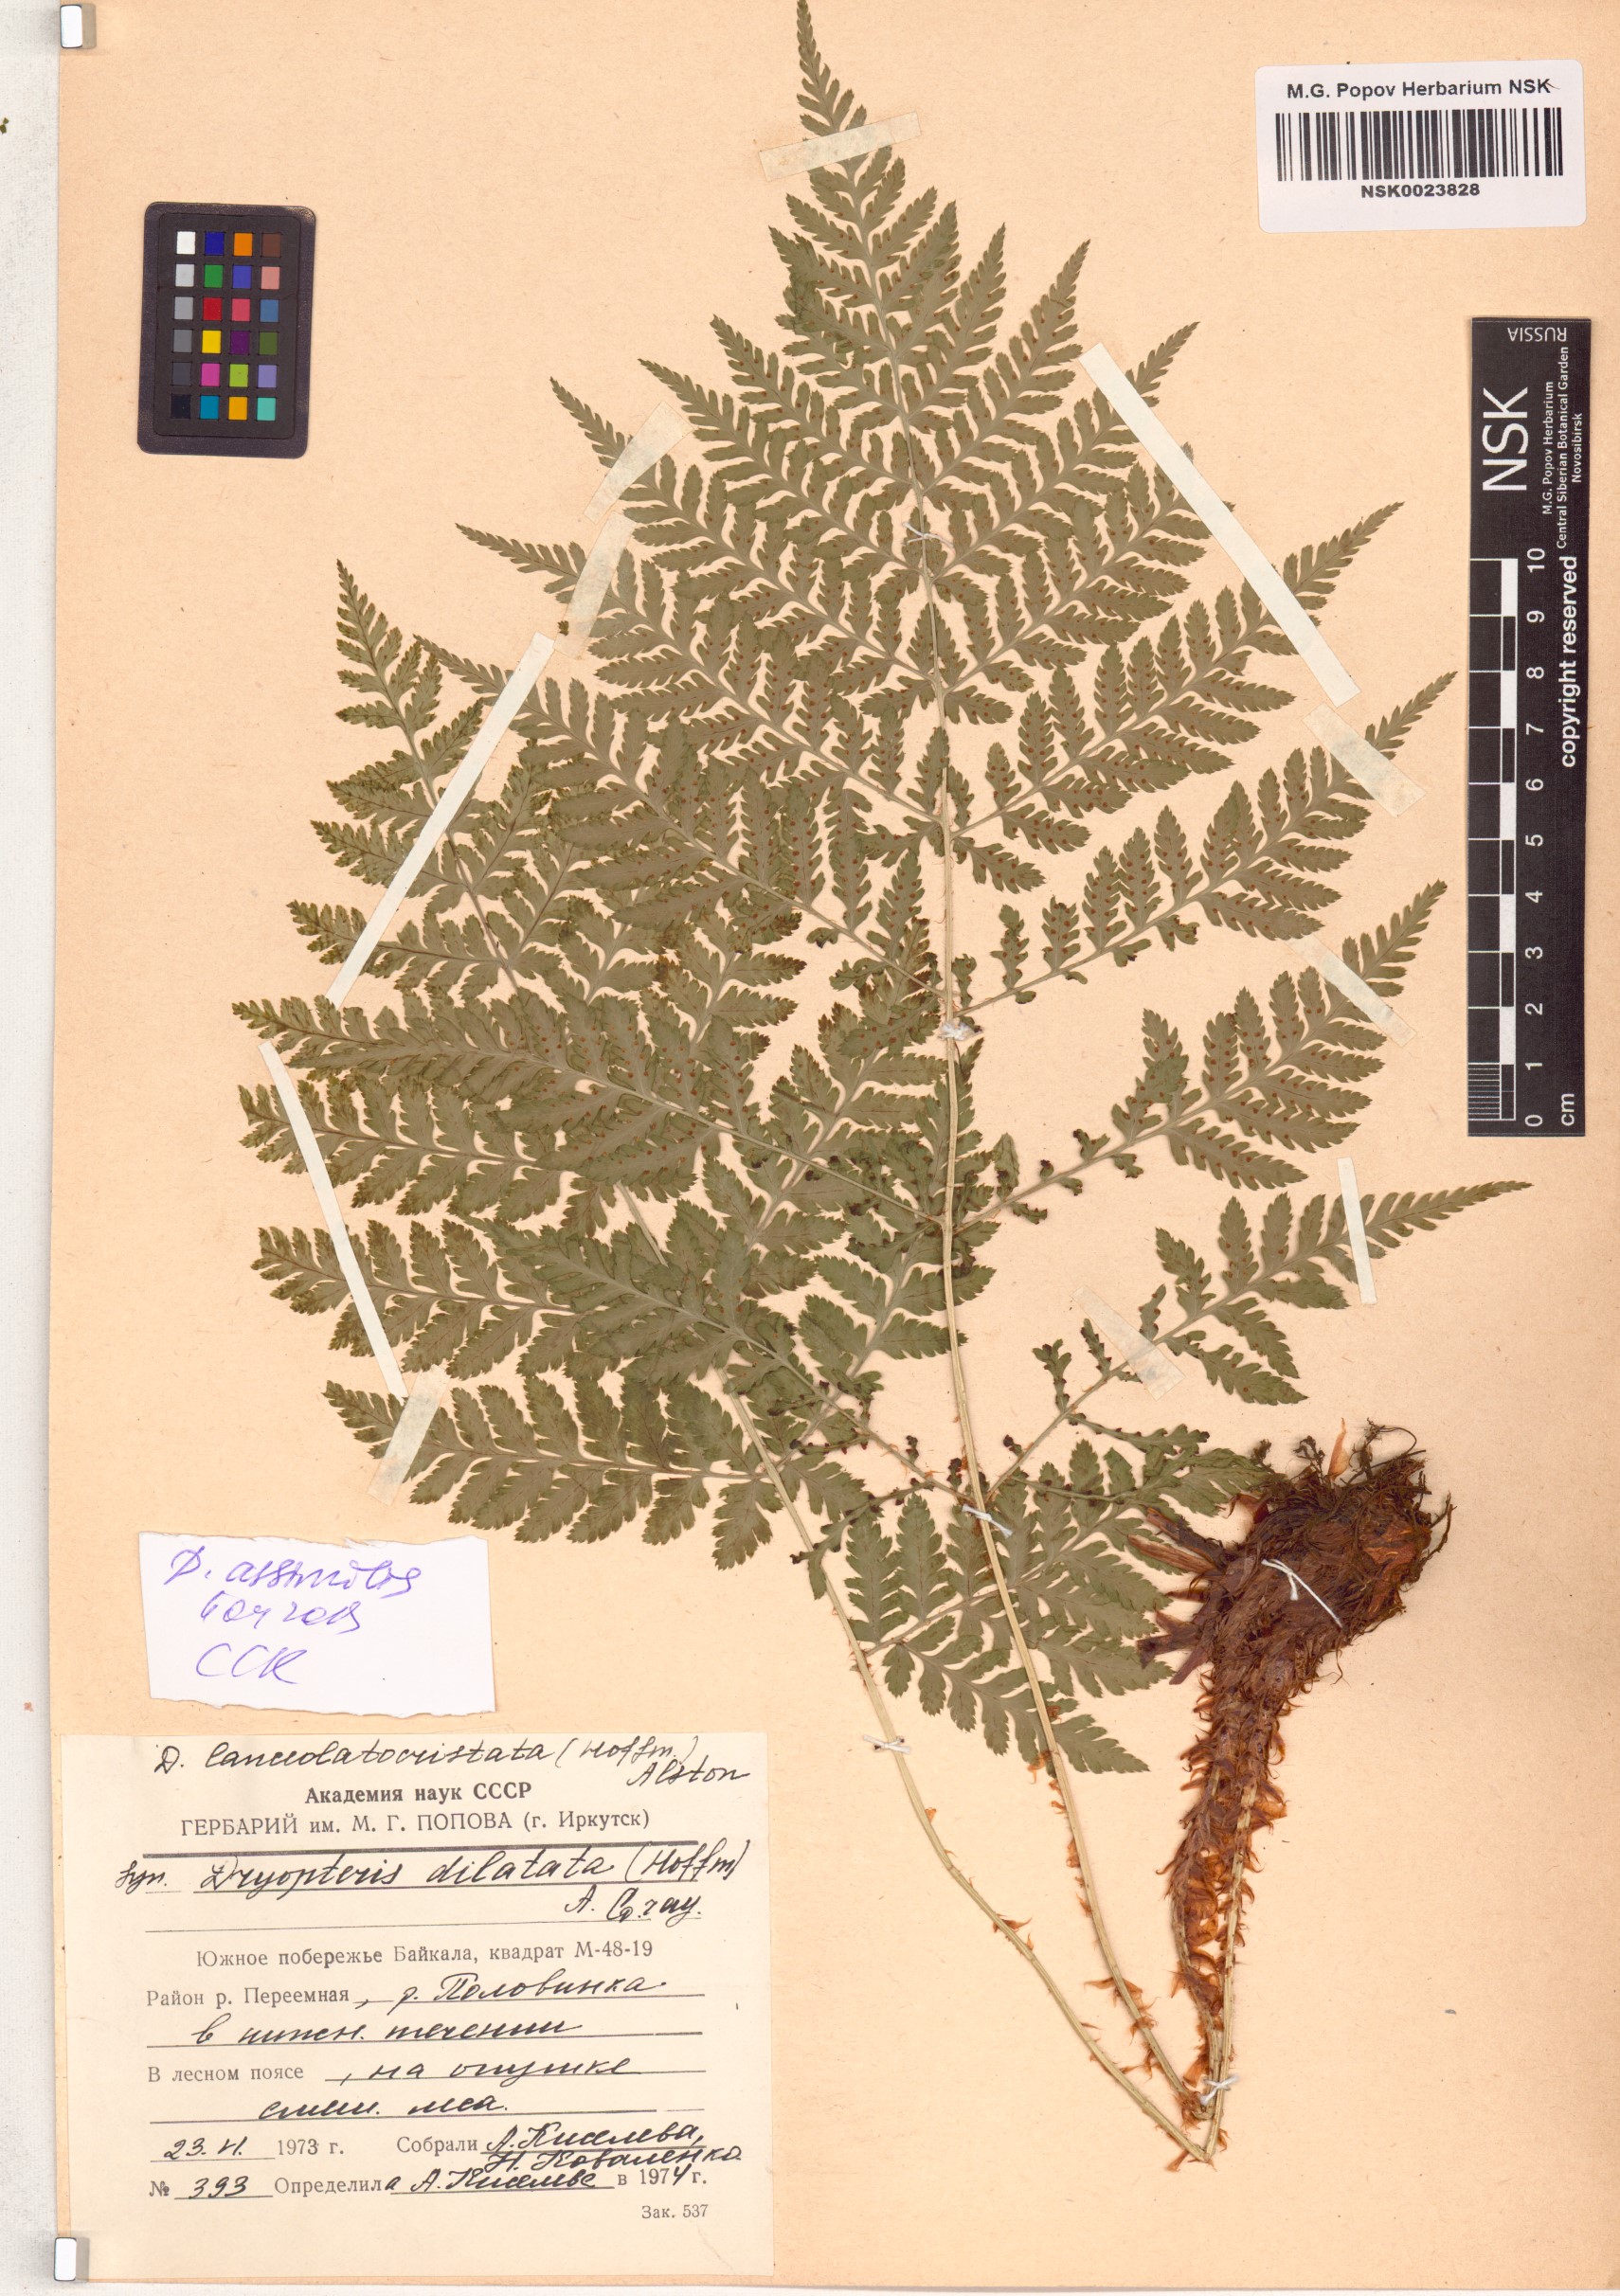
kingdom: Plantae
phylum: Tracheophyta
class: Polypodiopsida
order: Polypodiales
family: Dryopteridaceae
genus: Dryopteris
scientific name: Dryopteris expansa
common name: Northern buckler fern
